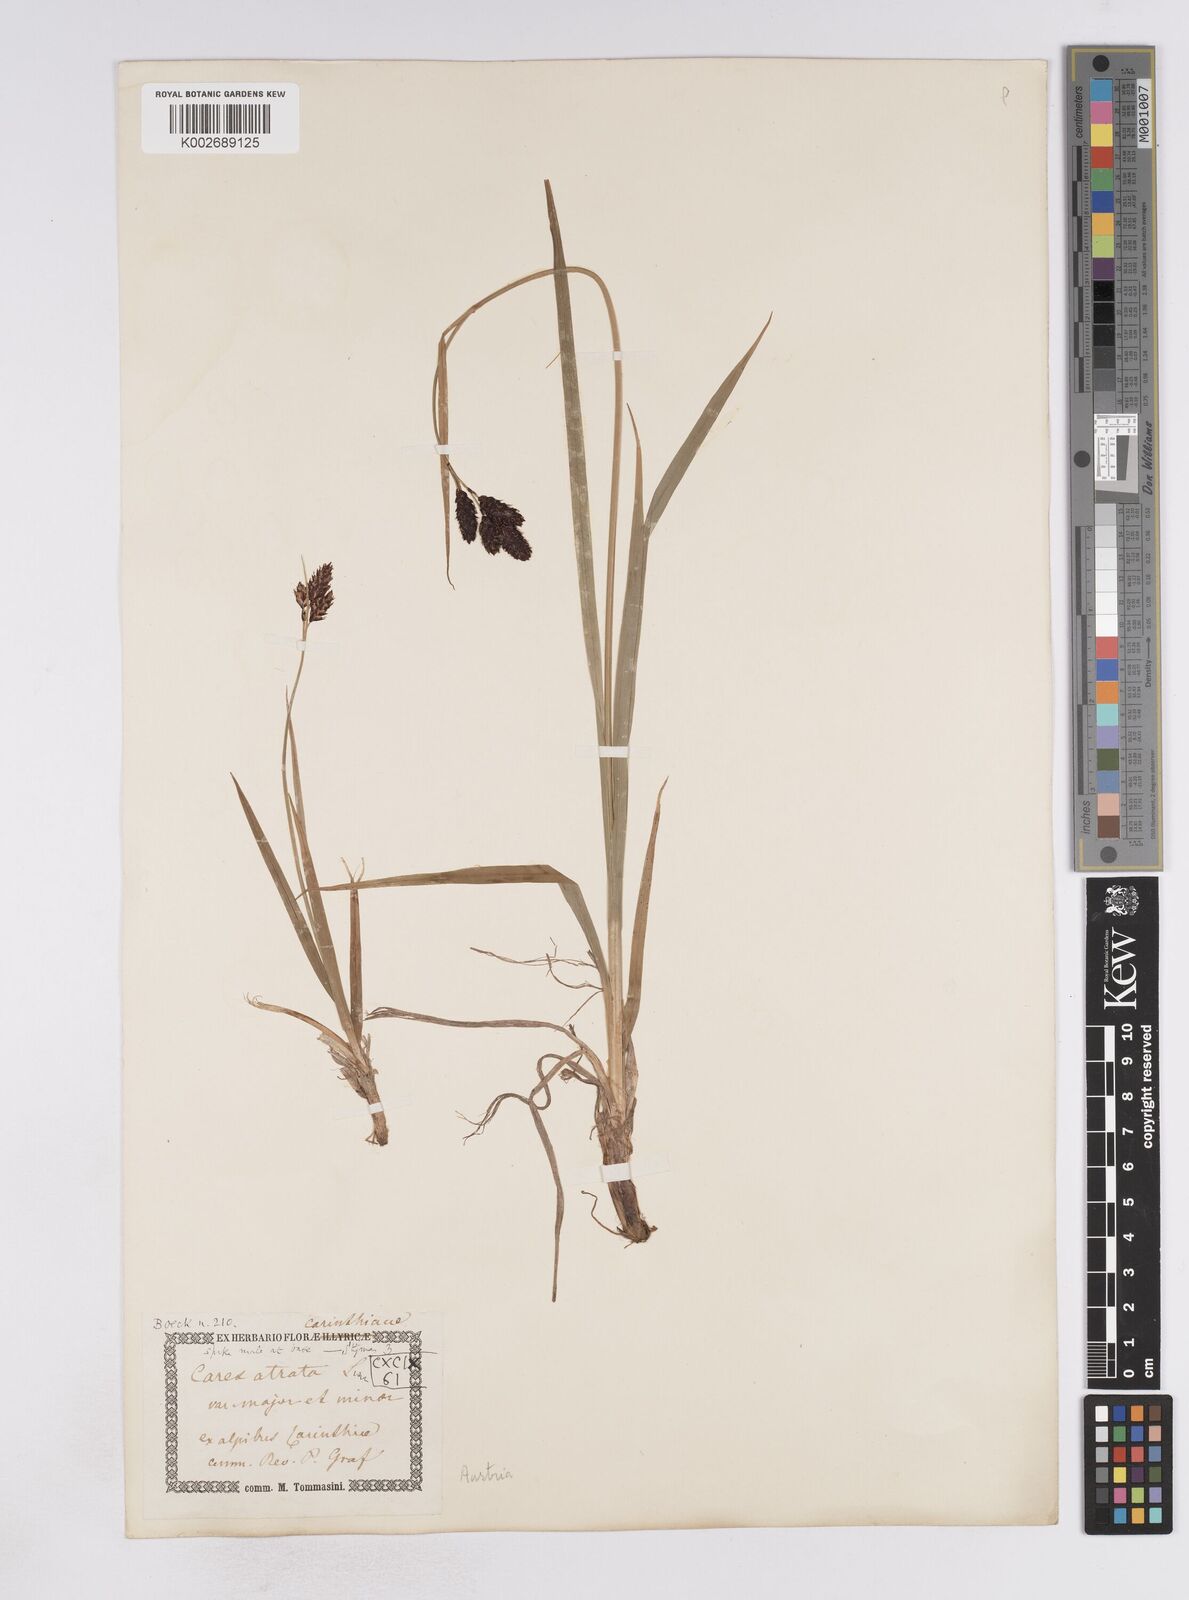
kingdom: Plantae
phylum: Tracheophyta
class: Liliopsida
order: Poales
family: Cyperaceae
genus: Carex
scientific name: Carex aterrima
